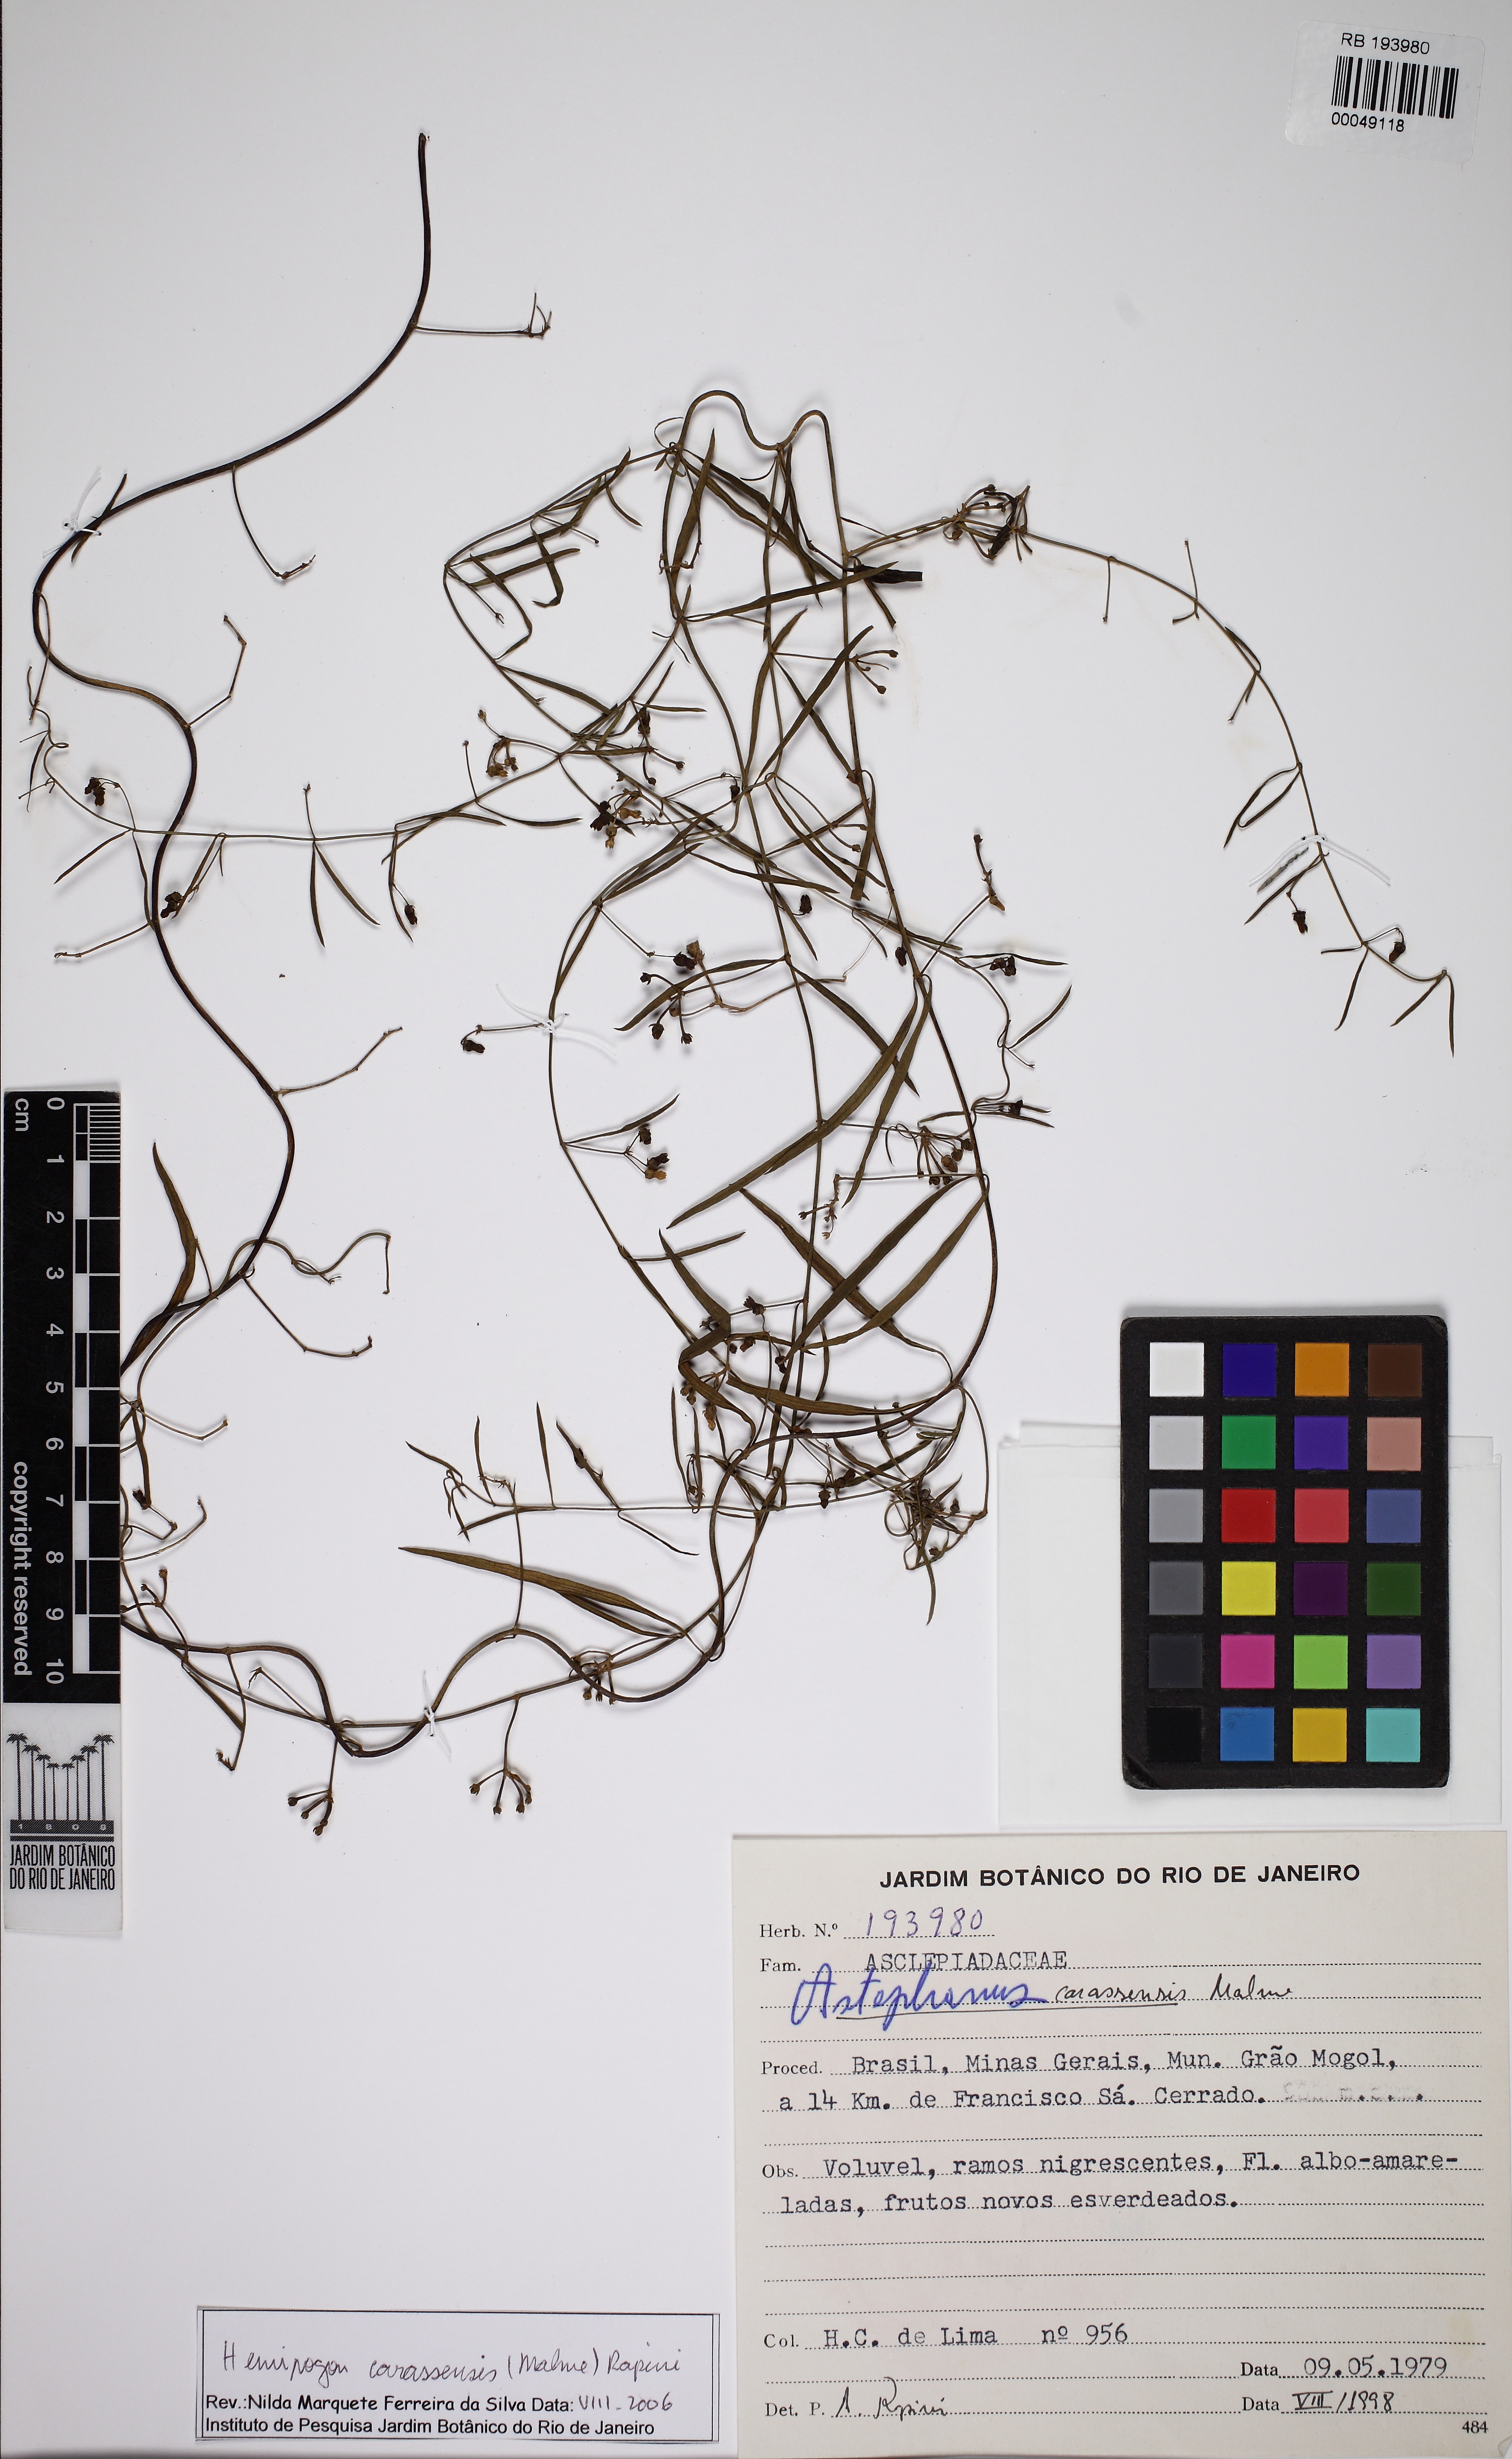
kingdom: Plantae
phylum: Tracheophyta
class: Magnoliopsida
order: Gentianales
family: Apocynaceae
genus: Morilloa
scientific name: Morilloa carassensis
